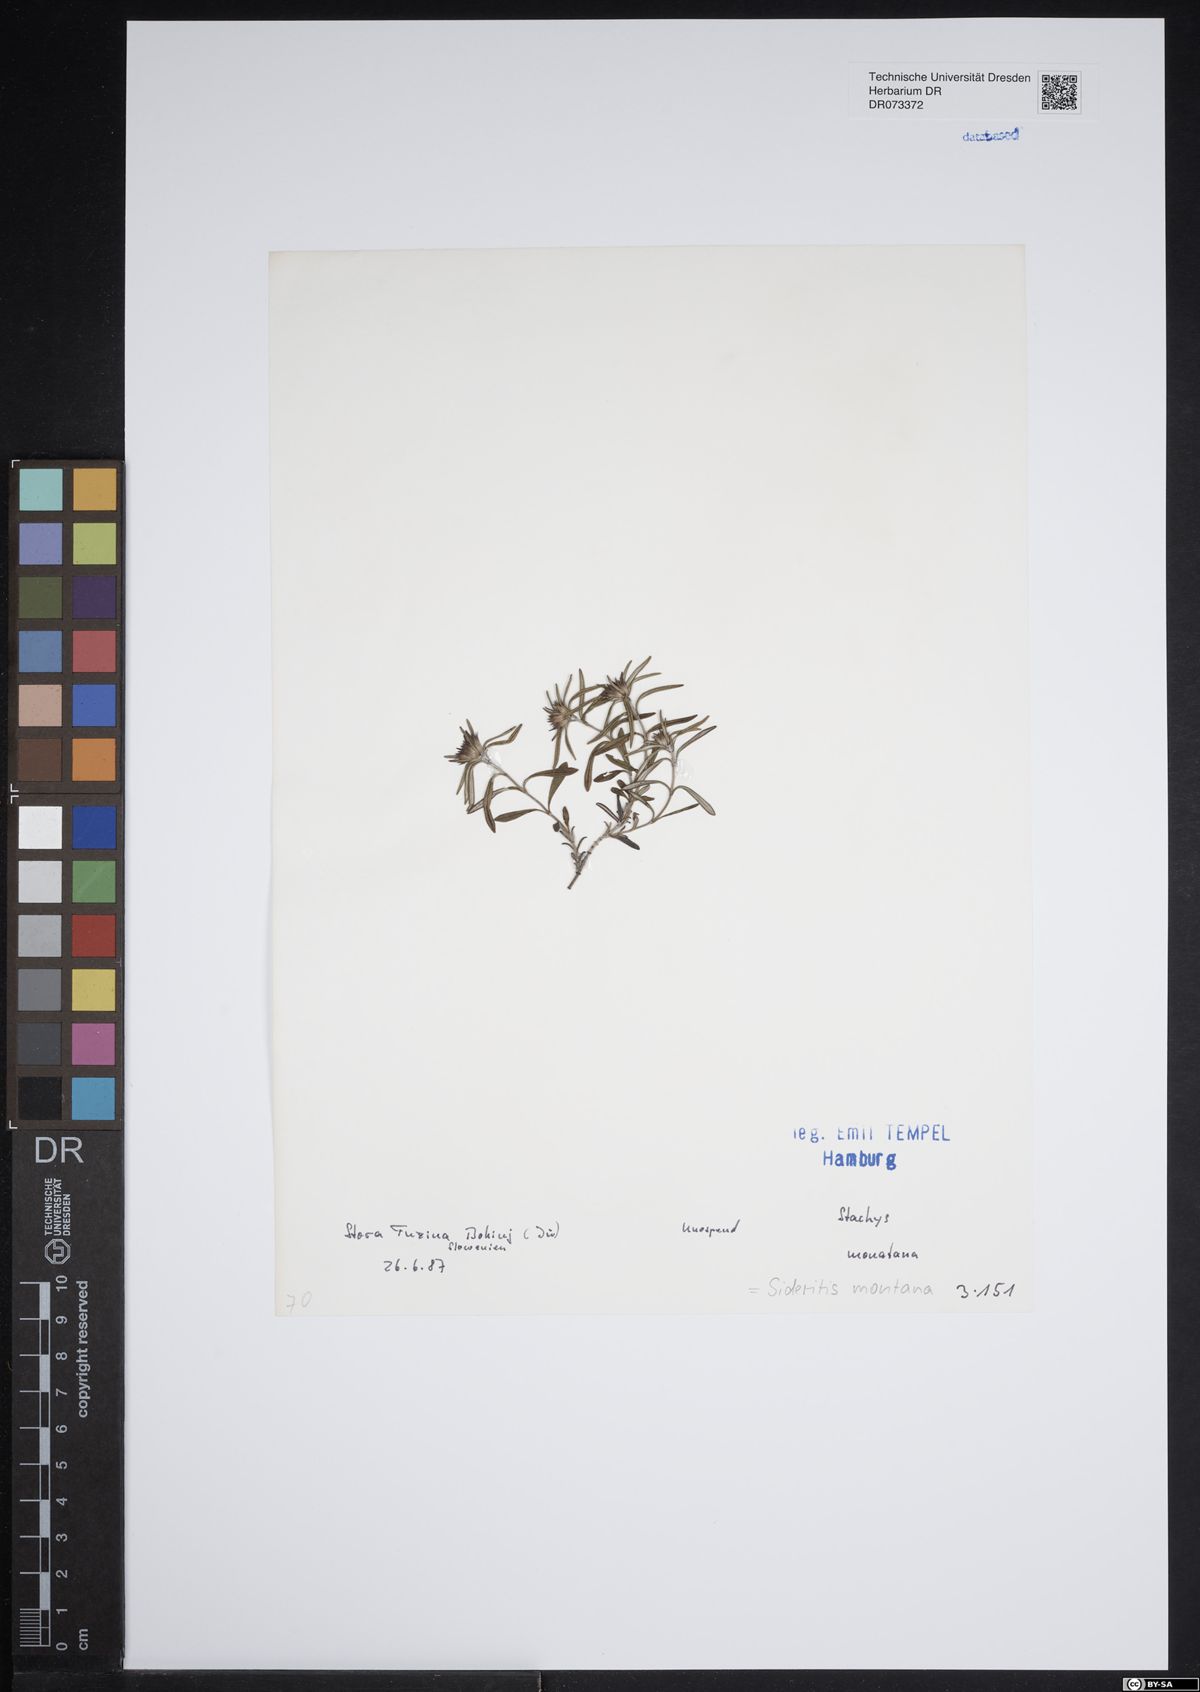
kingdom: Plantae
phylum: Tracheophyta
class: Magnoliopsida
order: Lamiales
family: Lamiaceae
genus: Sideritis
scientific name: Sideritis montana
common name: Mountain ironwort
